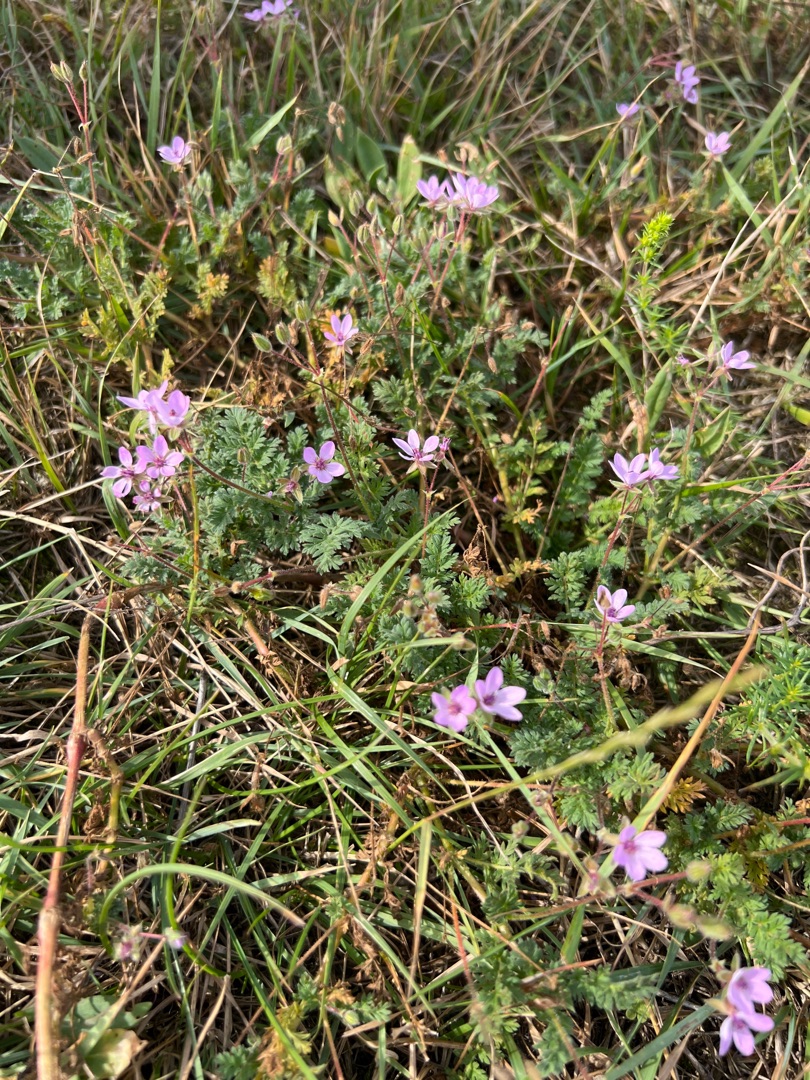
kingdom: Plantae
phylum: Tracheophyta
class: Magnoliopsida
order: Geraniales
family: Geraniaceae
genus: Erodium
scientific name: Erodium cicutarium
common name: Hejrenæb
